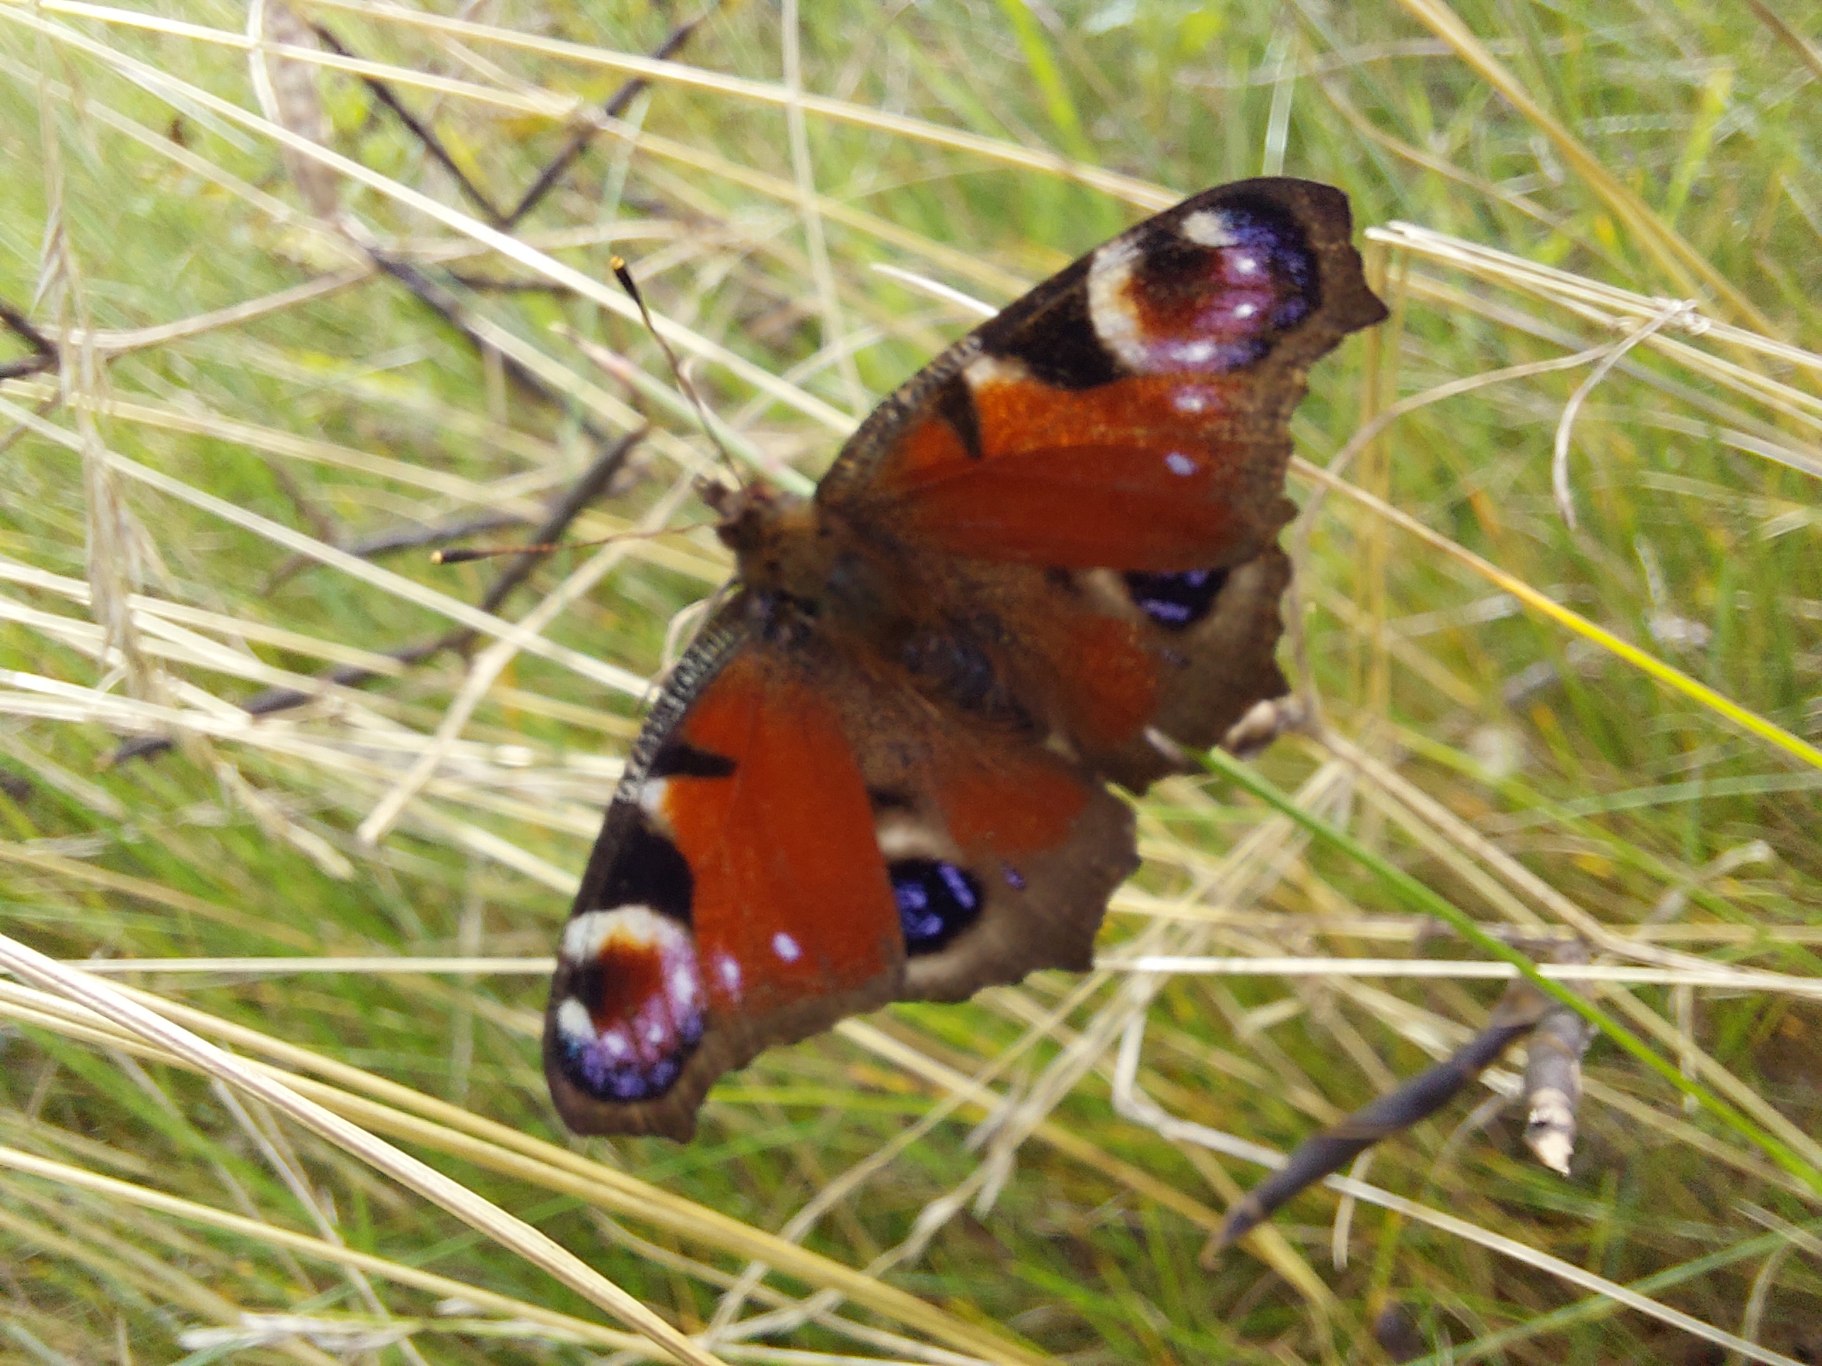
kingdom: Animalia
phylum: Arthropoda
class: Insecta
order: Lepidoptera
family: Nymphalidae
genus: Aglais
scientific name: Aglais io
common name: Dagpåfugleøje
